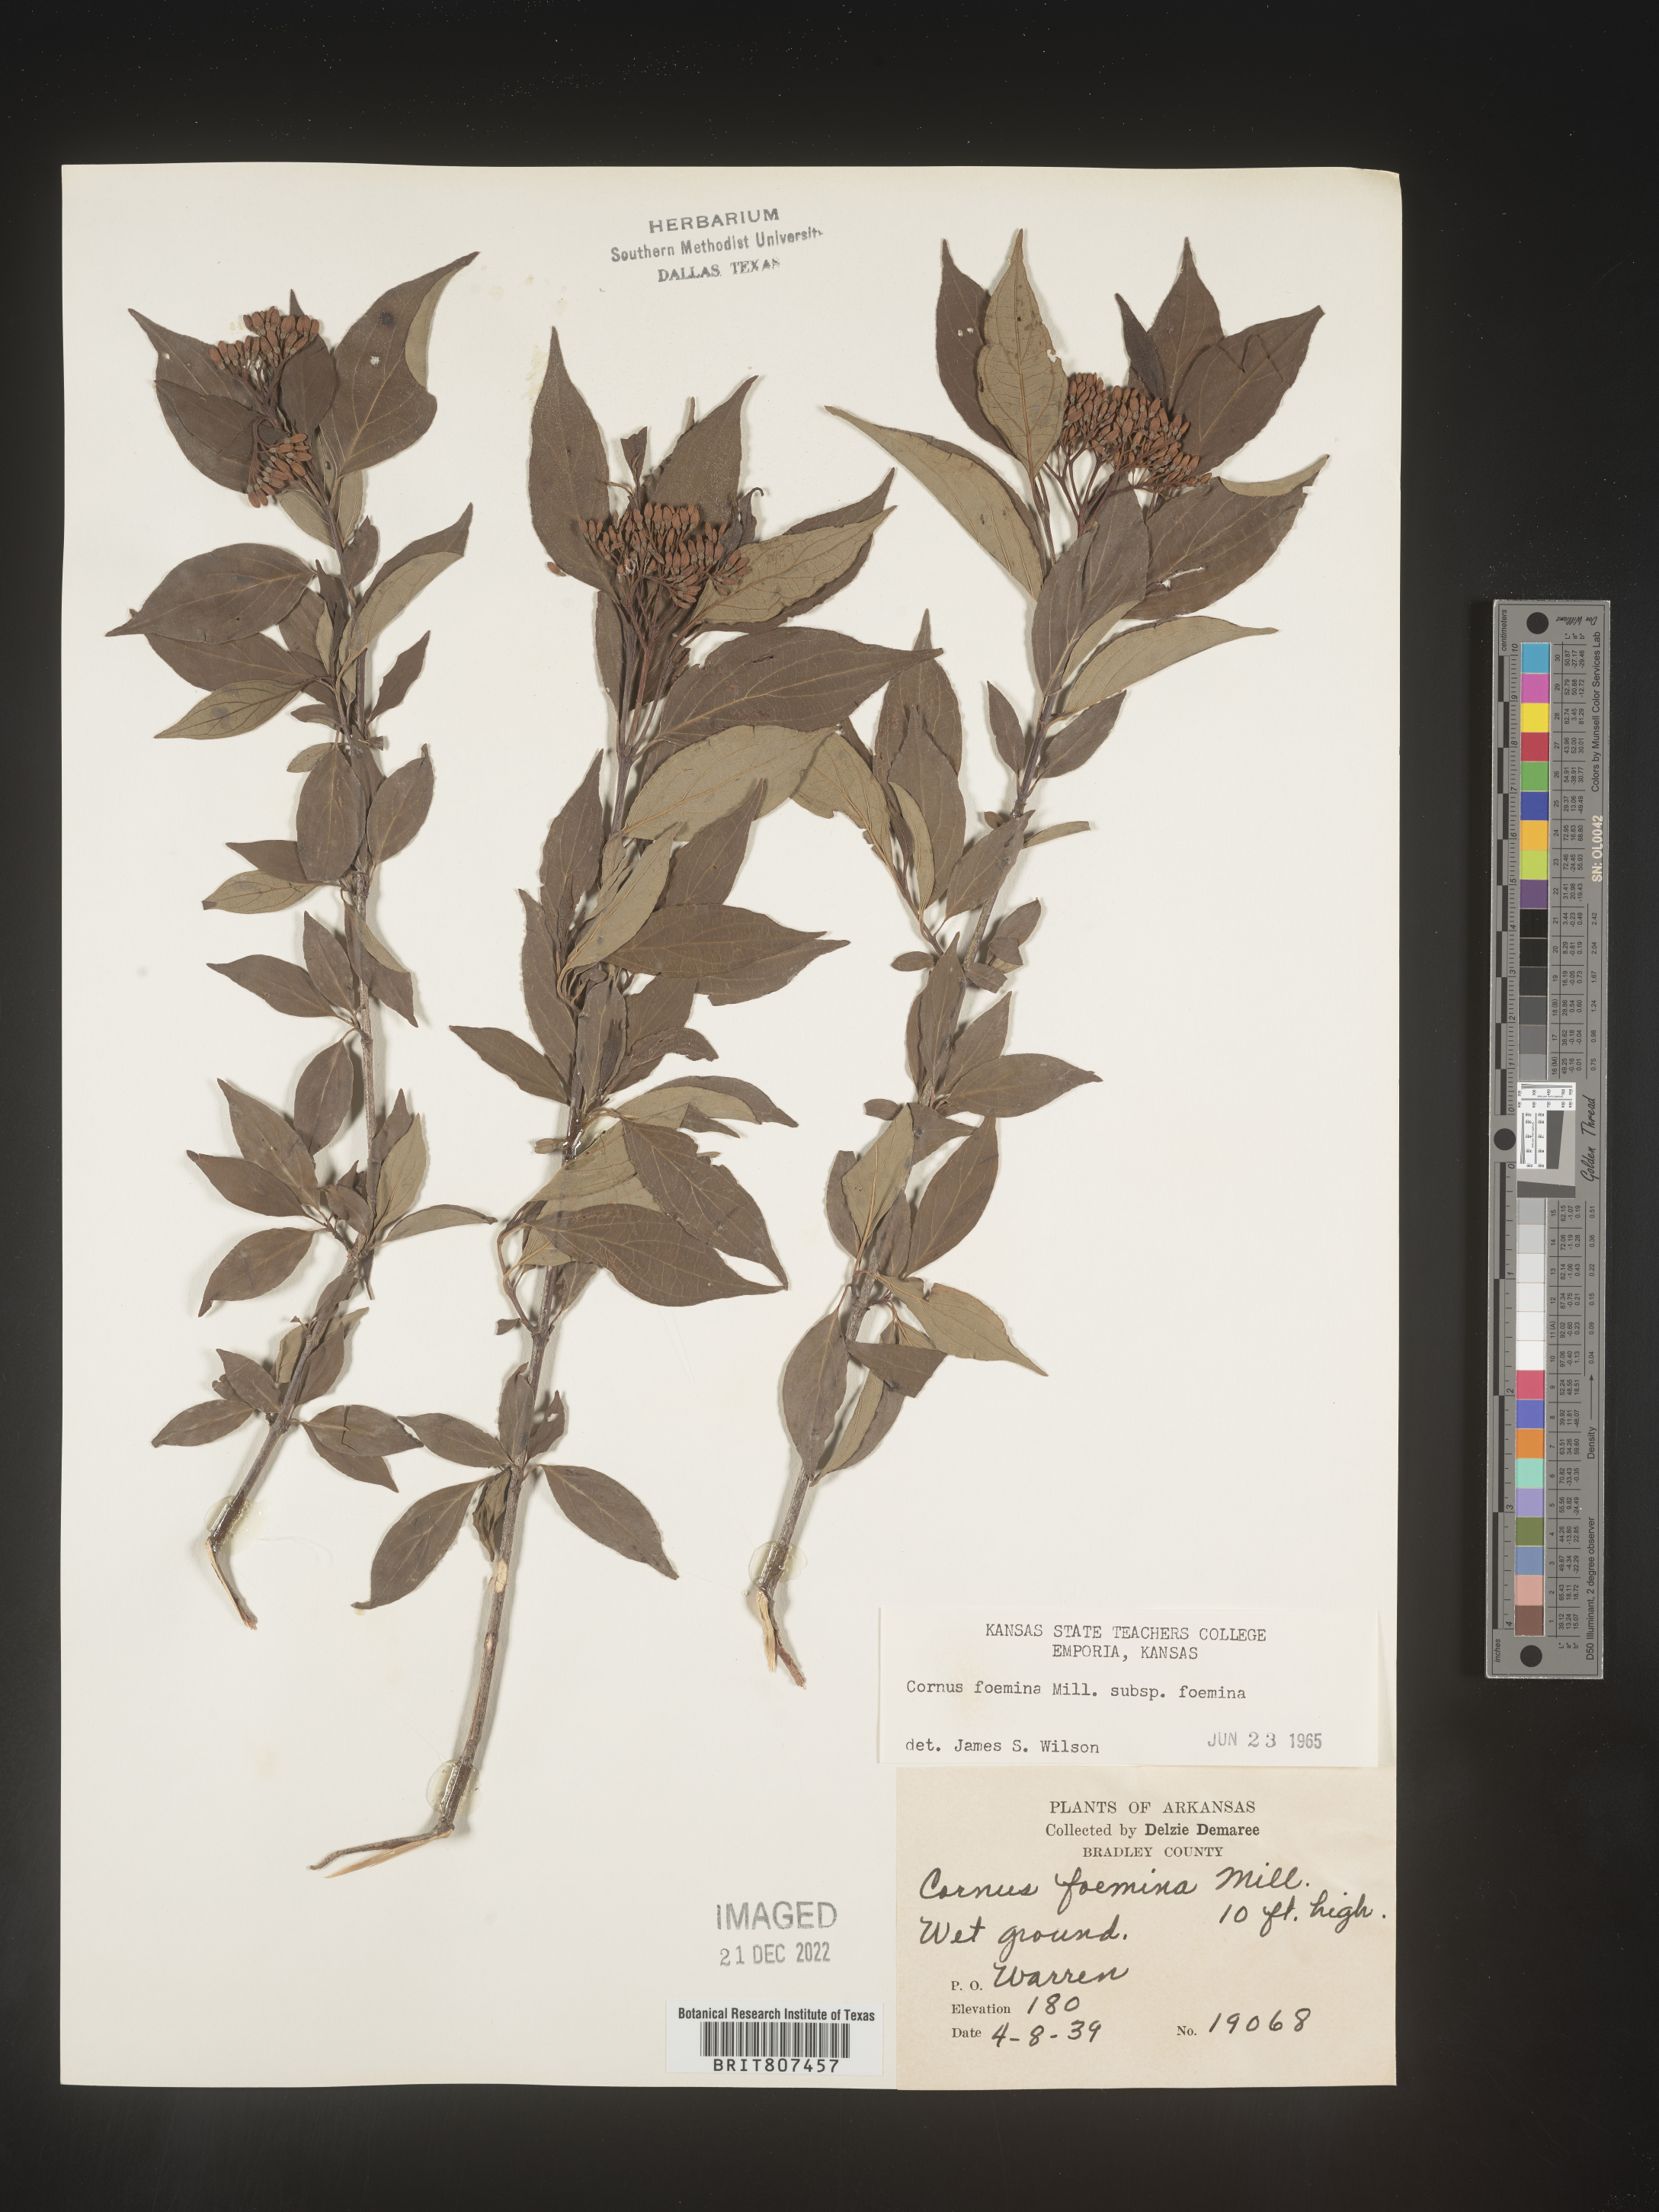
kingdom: Plantae
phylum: Tracheophyta
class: Magnoliopsida
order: Cornales
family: Cornaceae
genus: Cornus
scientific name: Cornus foemina
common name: Swamp dogwood
